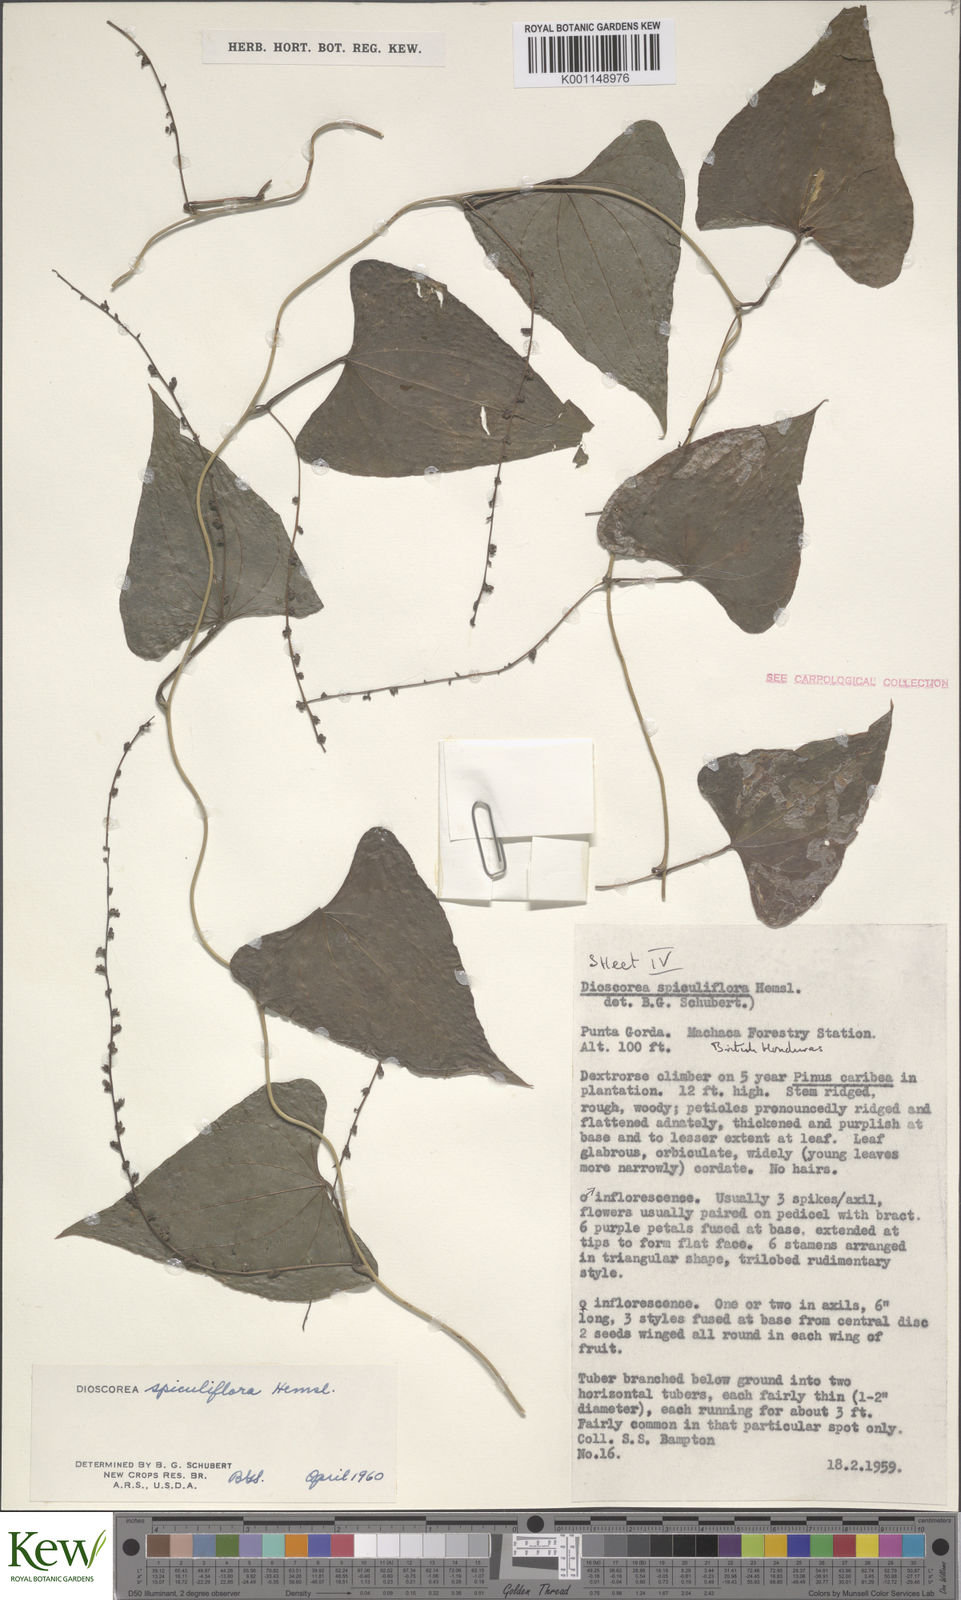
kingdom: Plantae
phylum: Tracheophyta
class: Liliopsida
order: Dioscoreales
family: Dioscoreaceae
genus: Dioscorea
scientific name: Dioscorea spiculiflora
